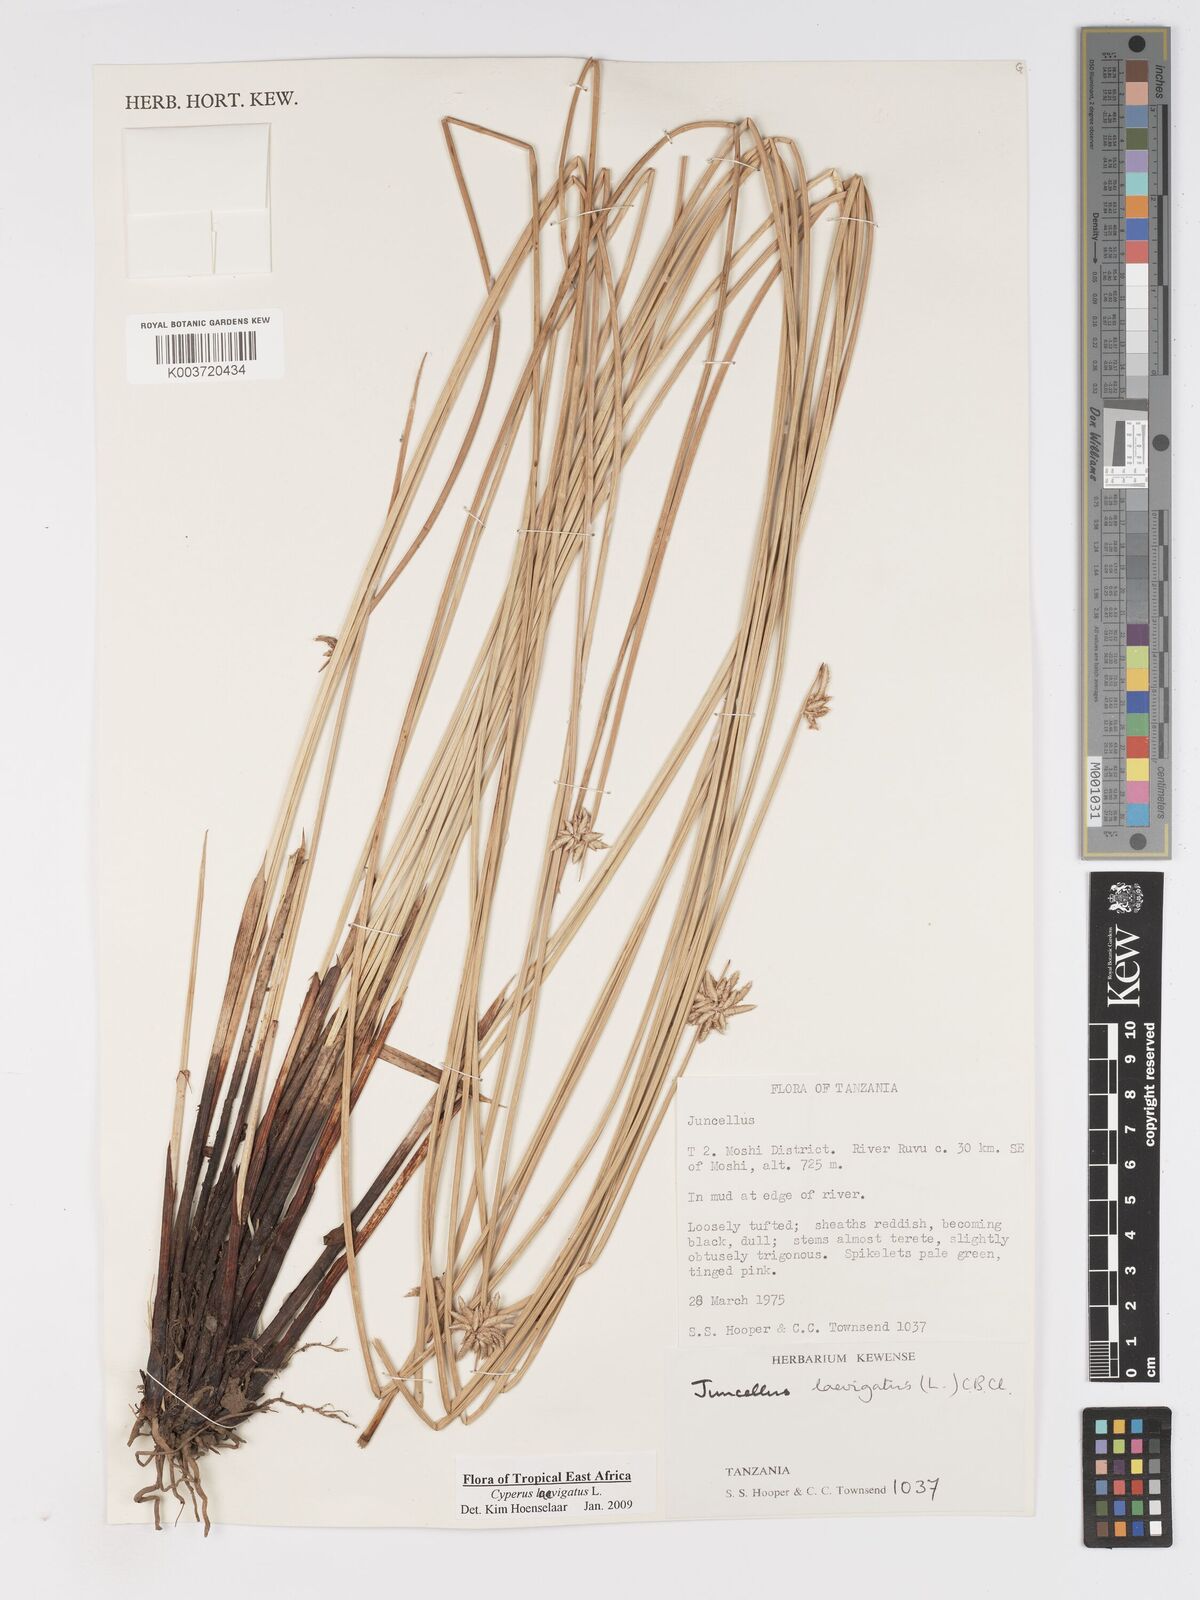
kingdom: Plantae
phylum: Tracheophyta
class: Liliopsida
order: Poales
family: Cyperaceae
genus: Cyperus
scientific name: Cyperus laevigatus
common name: Smooth flat sedge
